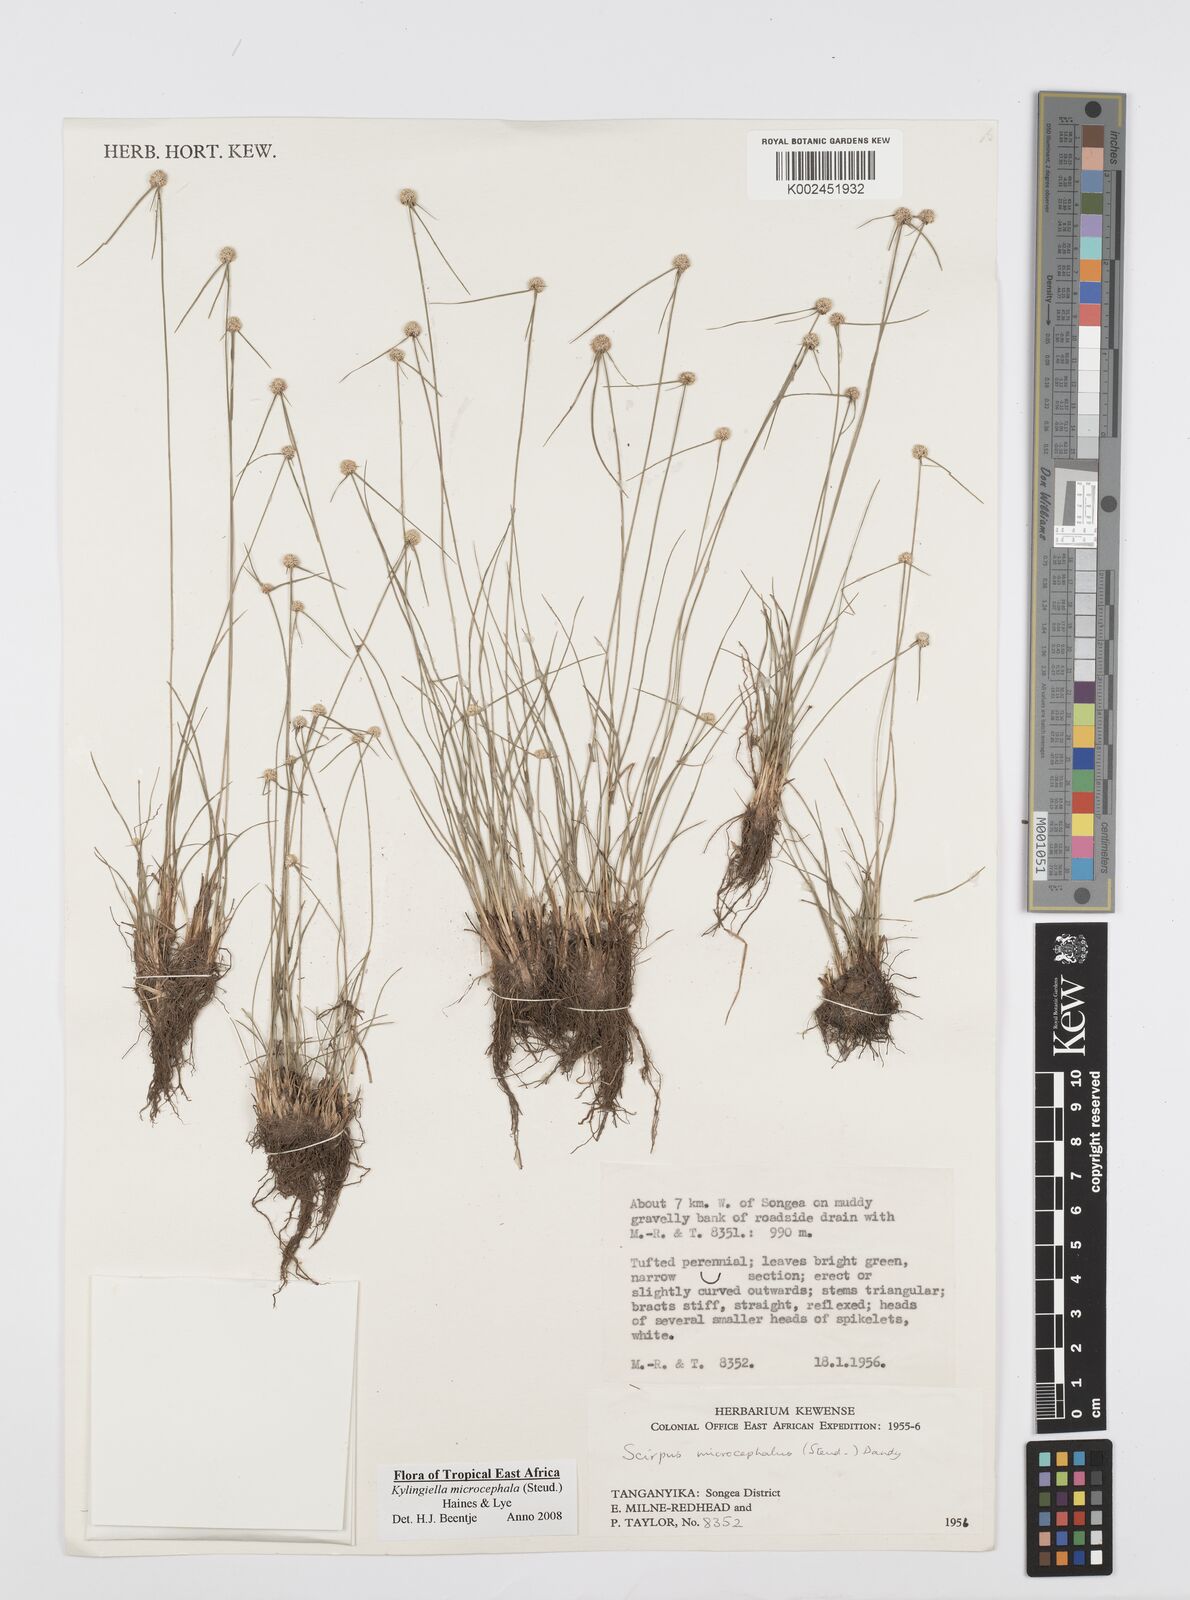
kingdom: Plantae
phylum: Tracheophyta
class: Liliopsida
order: Poales
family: Cyperaceae
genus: Cyperus
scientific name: Cyperus microcephalus
